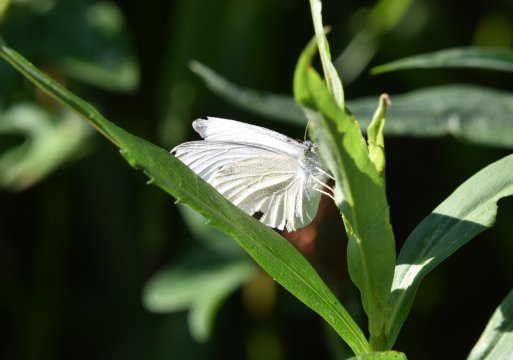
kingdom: Animalia
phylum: Arthropoda
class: Insecta
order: Lepidoptera
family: Pieridae
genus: Pieris
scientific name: Pieris rapae
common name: Cabbage White
